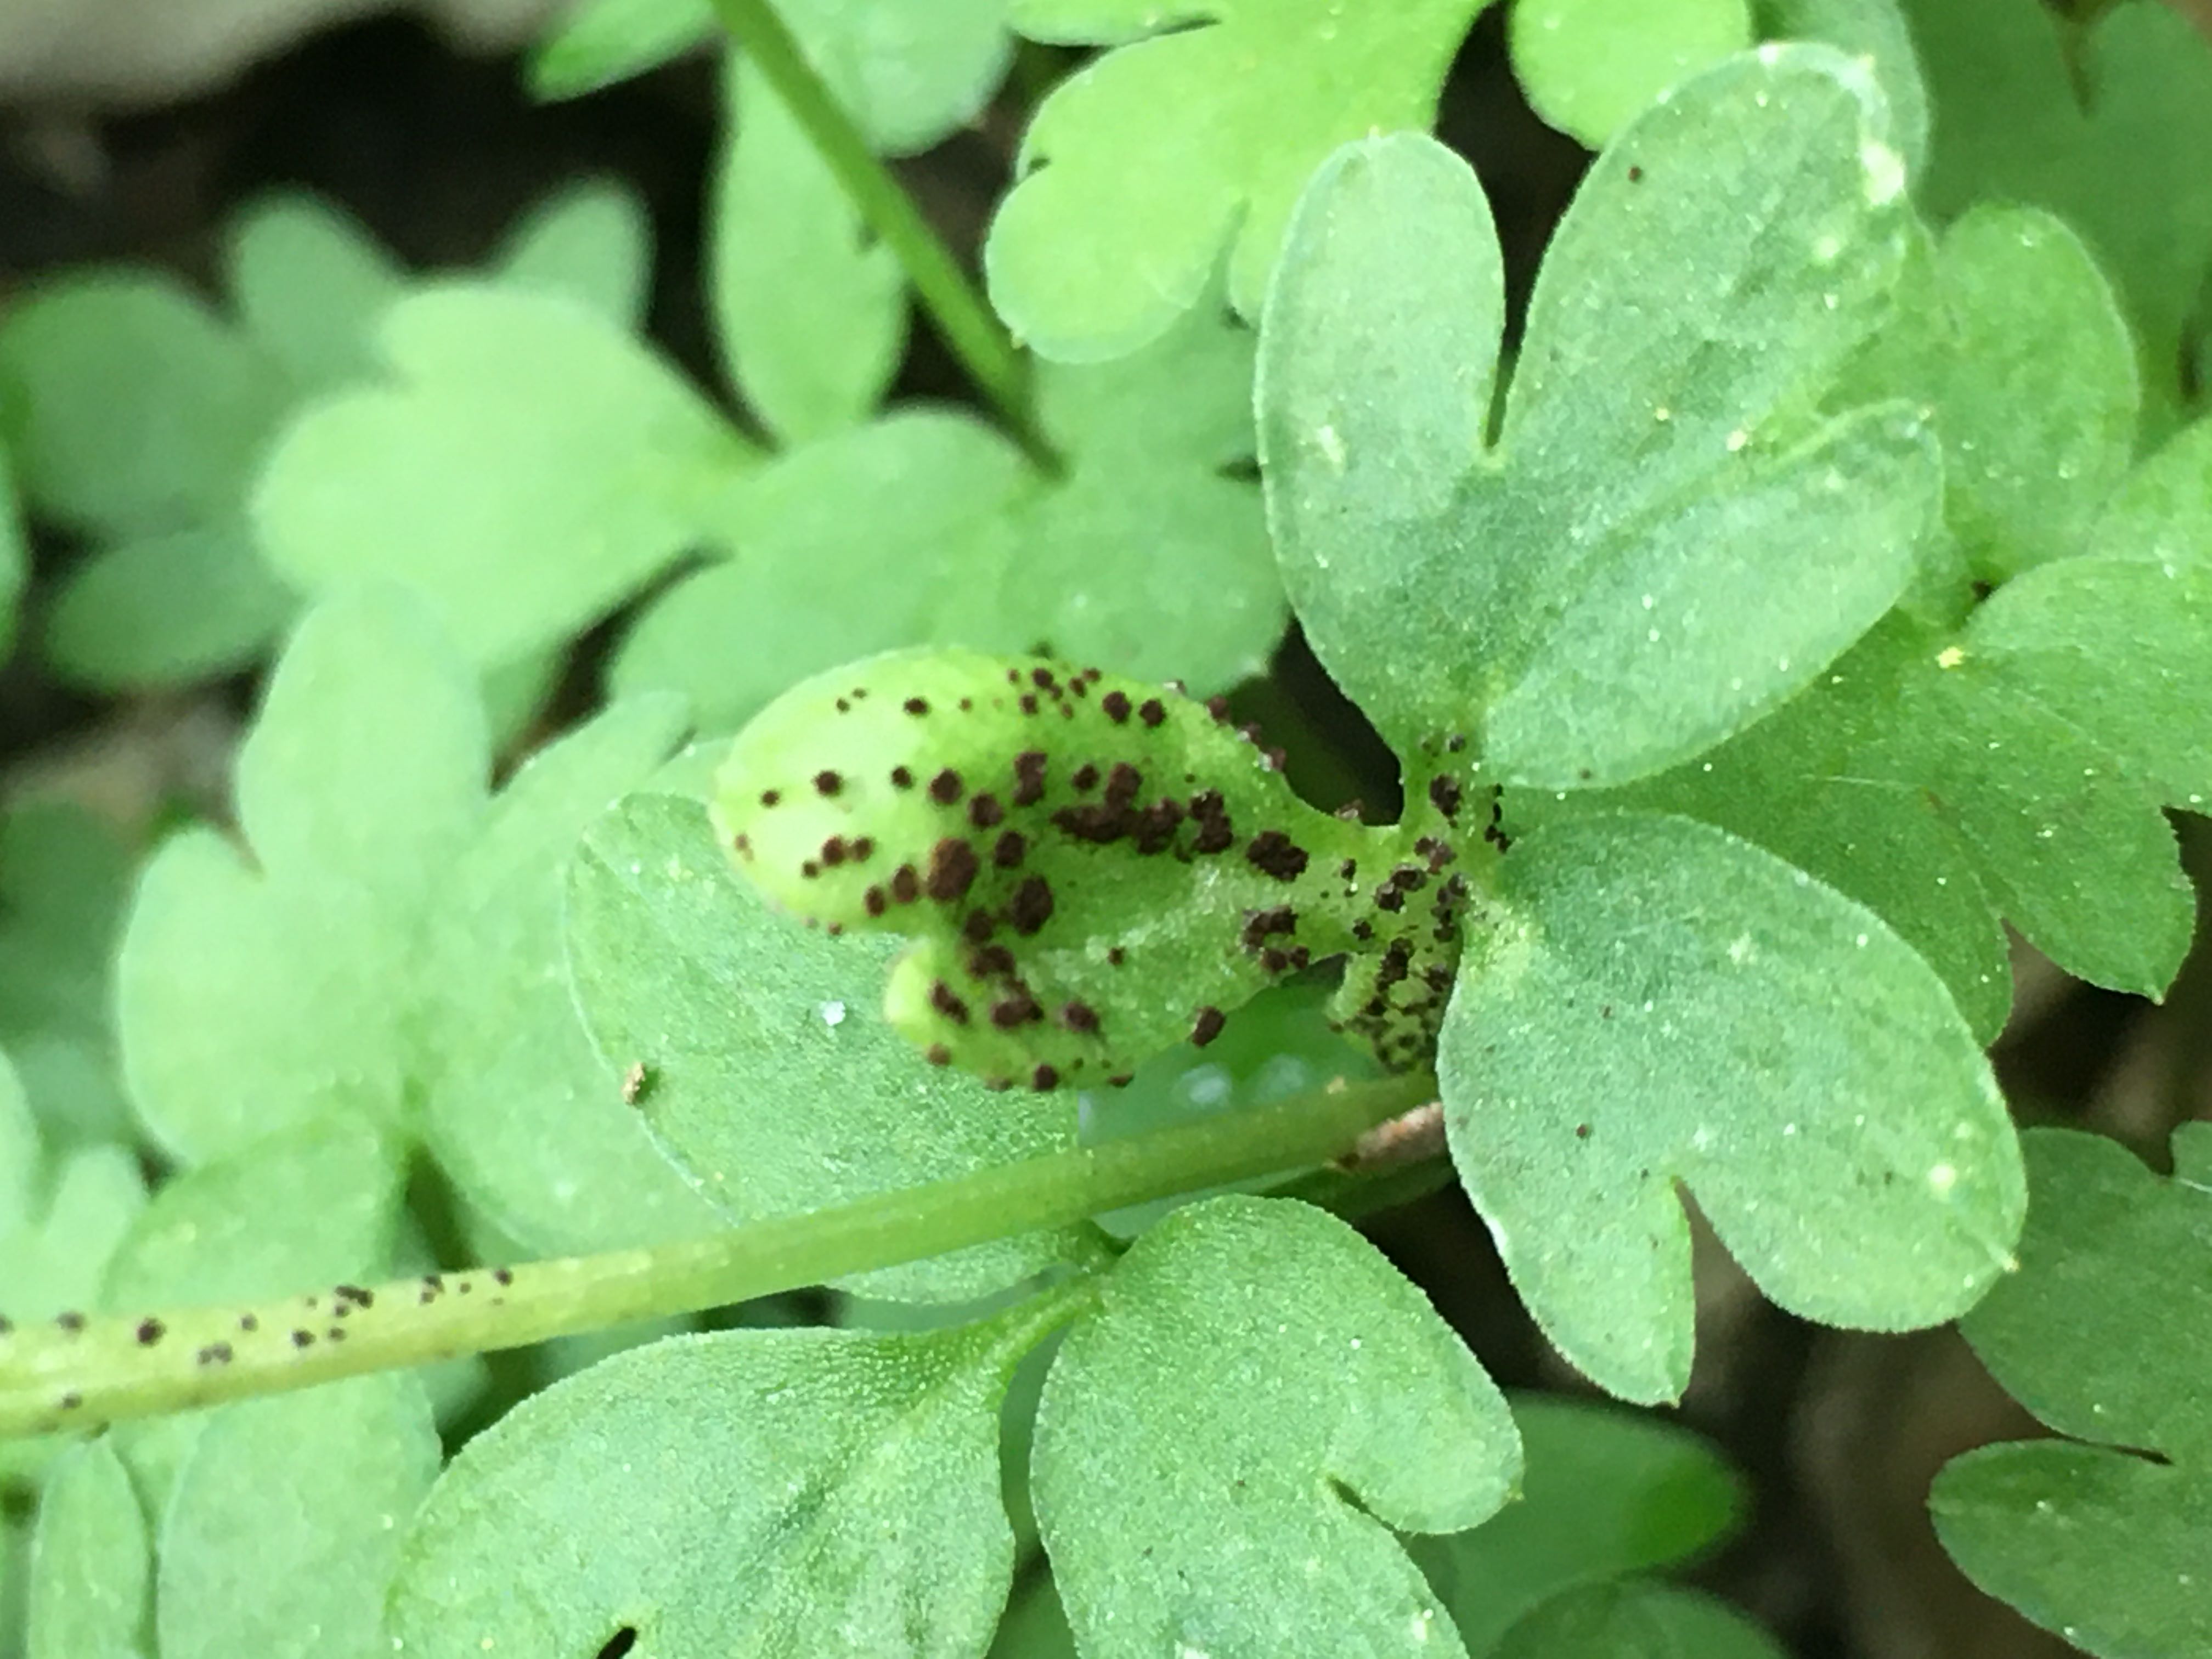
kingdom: Fungi
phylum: Basidiomycota
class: Pucciniomycetes
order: Pucciniales
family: Pucciniaceae
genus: Puccinia
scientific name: Puccinia adoxae
